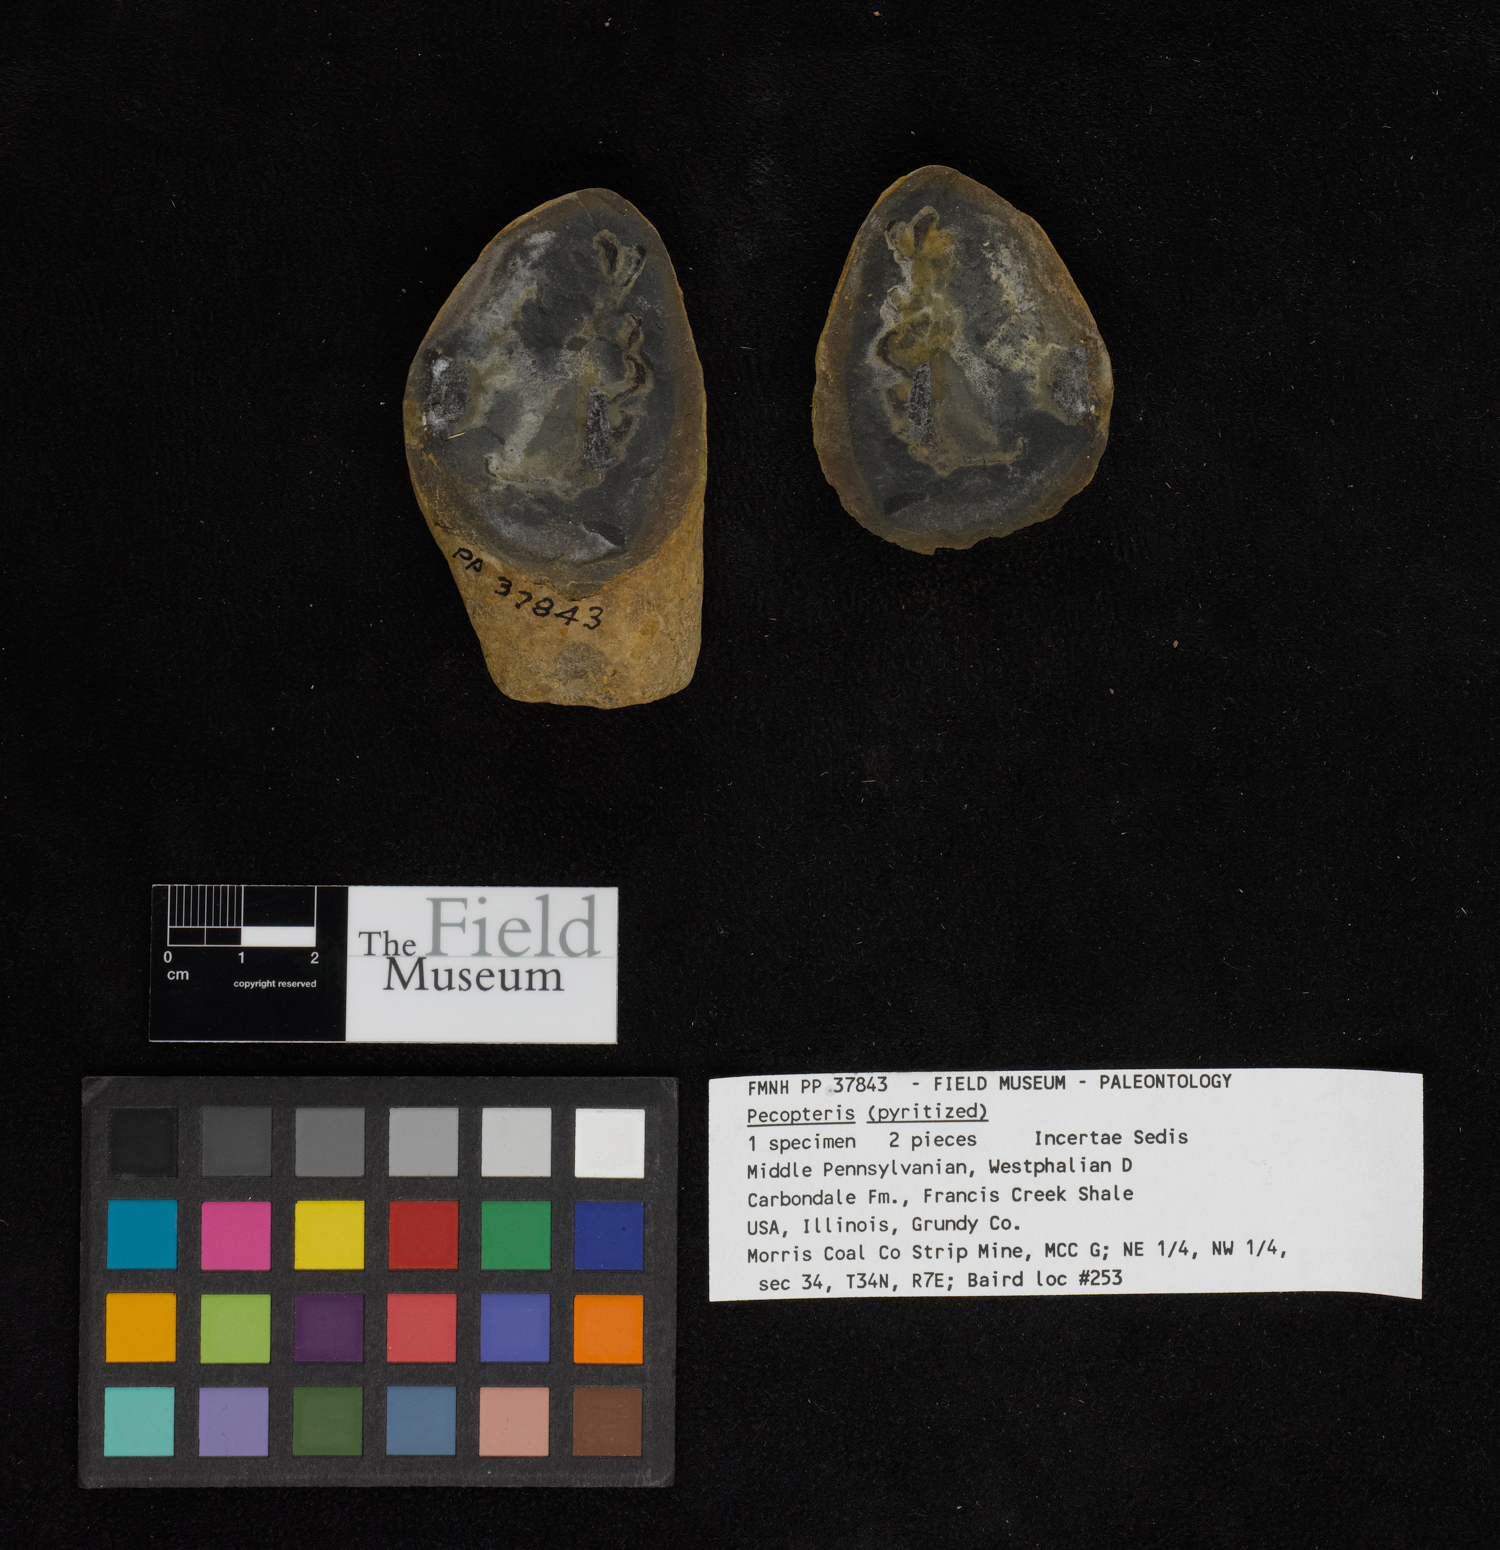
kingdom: Plantae
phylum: Tracheophyta
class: Polypodiopsida
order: Marattiales
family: Asterothecaceae
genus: Pecopteris
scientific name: Pecopteris
